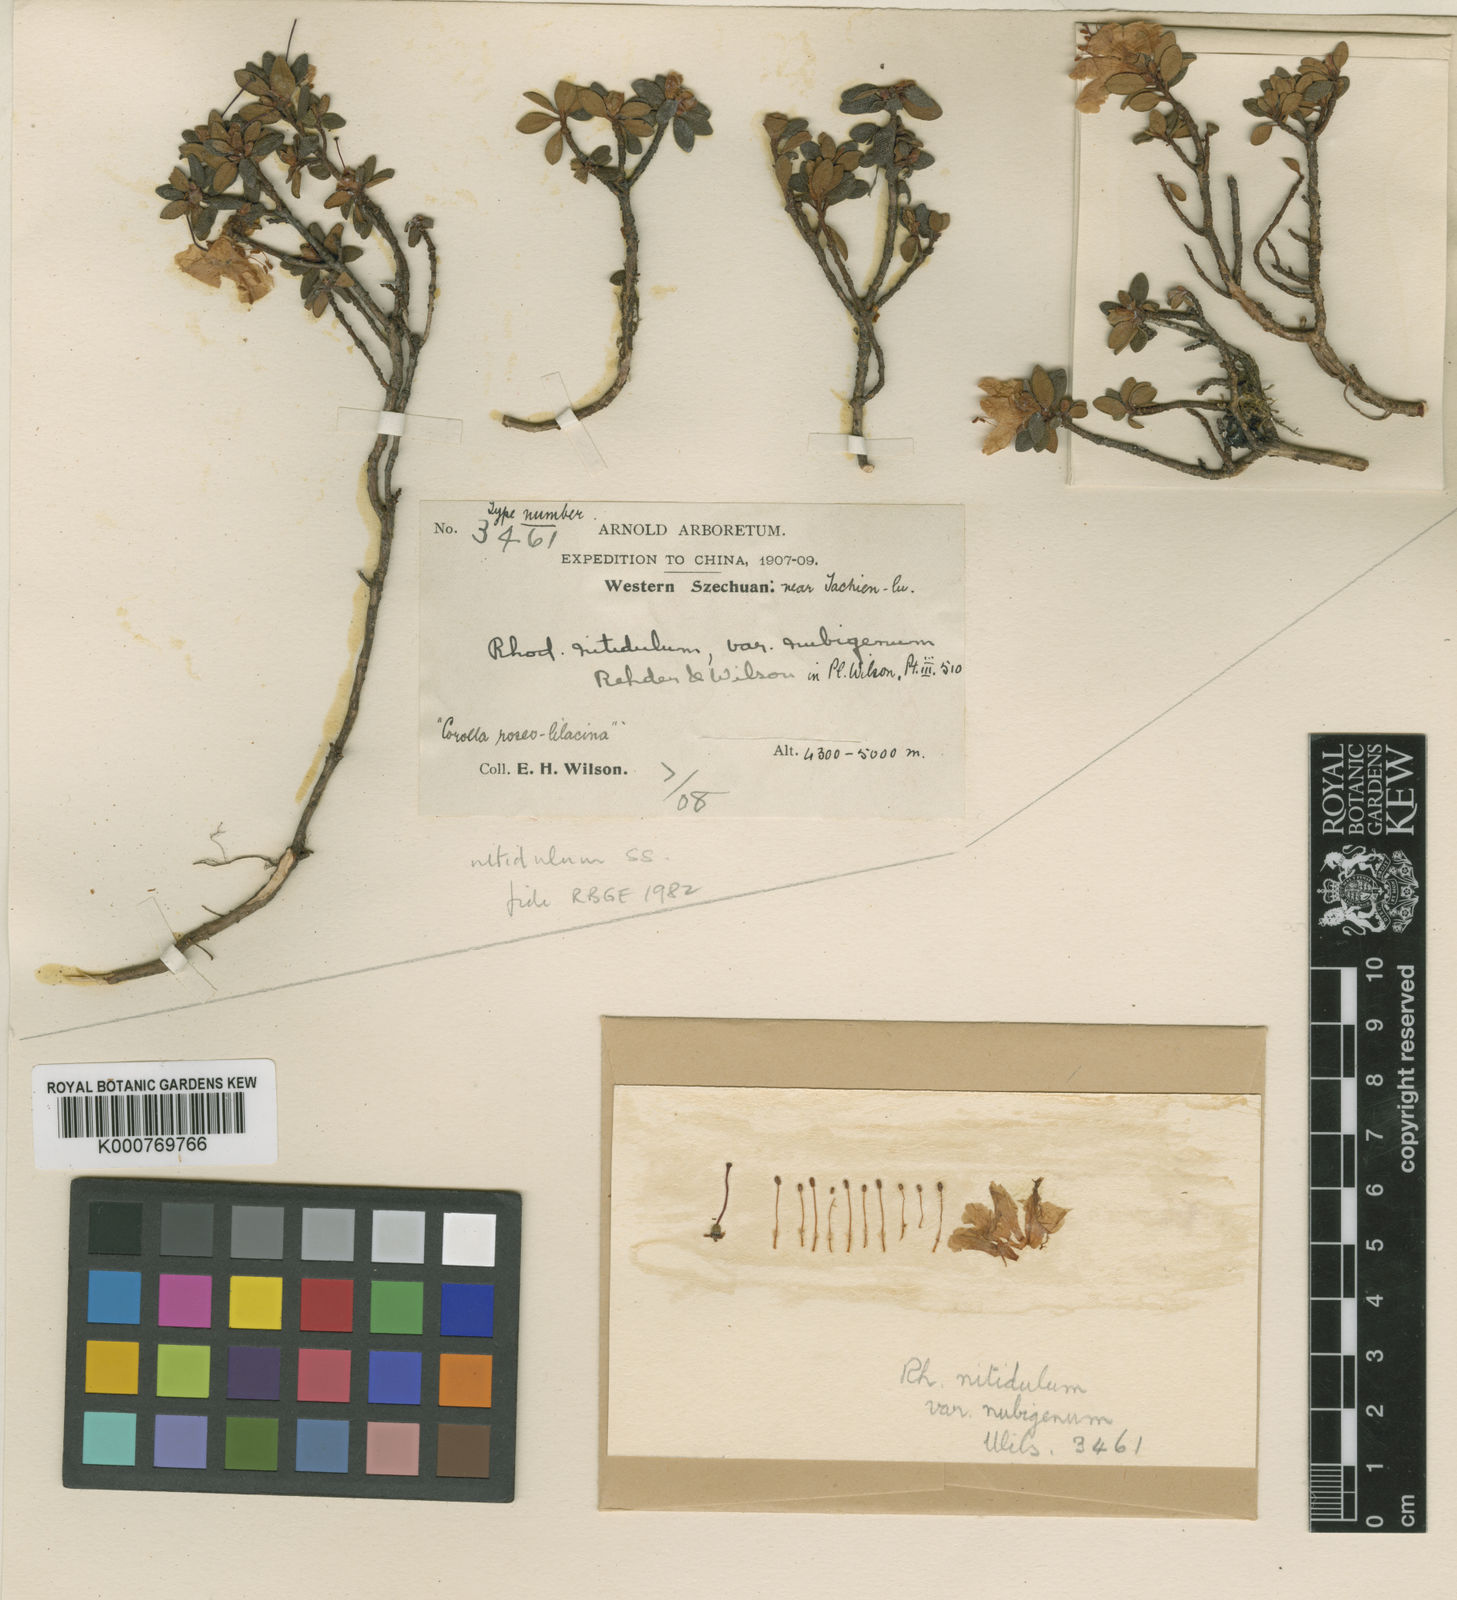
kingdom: Plantae
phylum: Tracheophyta
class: Magnoliopsida
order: Ericales
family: Ericaceae
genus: Rhododendron
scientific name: Rhododendron nitidulum
